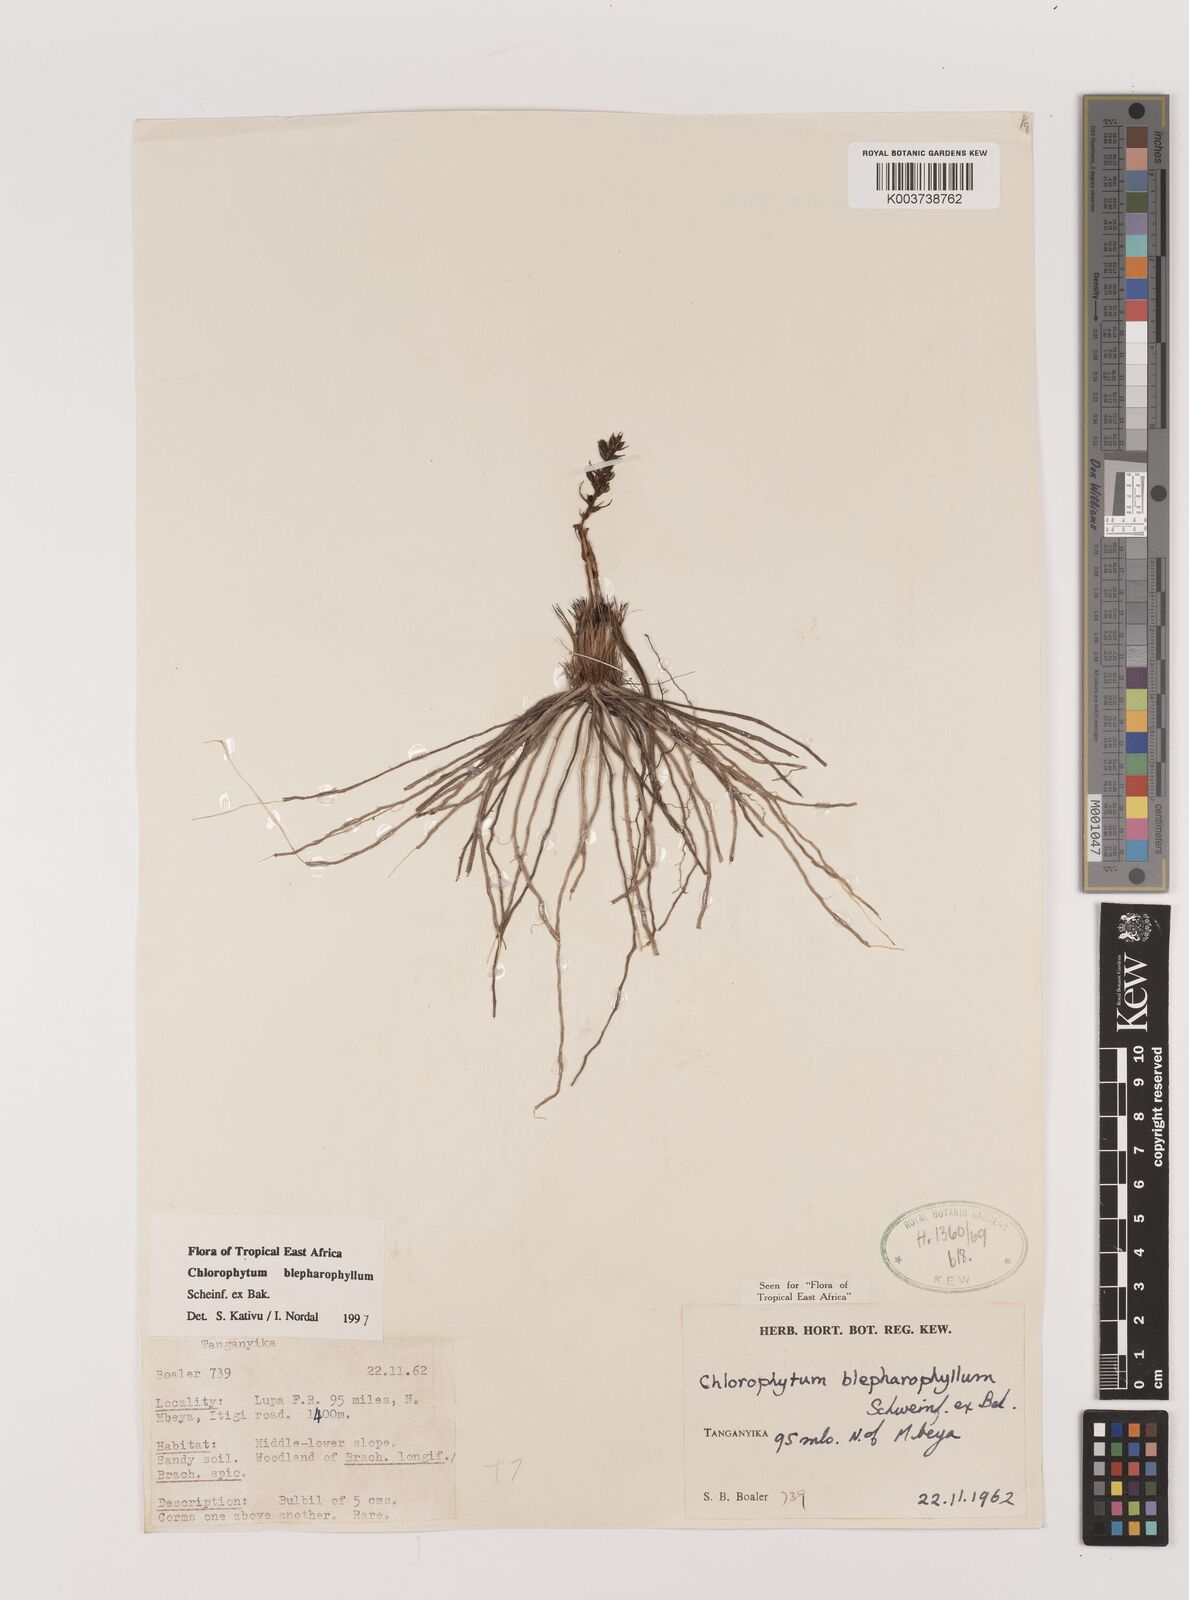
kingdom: Plantae
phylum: Tracheophyta
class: Liliopsida
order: Asparagales
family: Asparagaceae
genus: Chlorophytum
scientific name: Chlorophytum blepharophyllum
